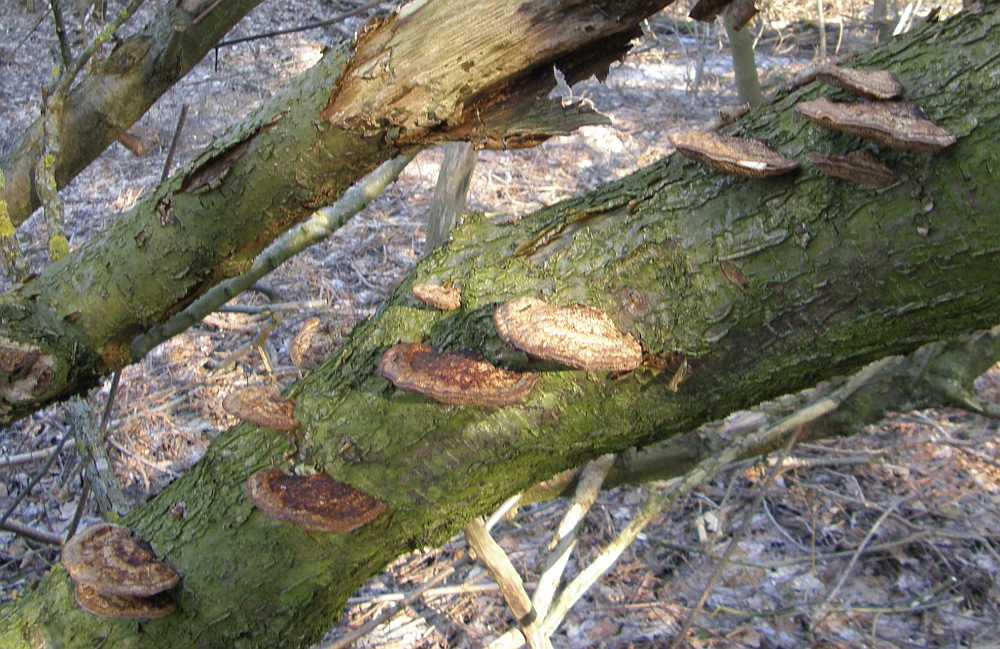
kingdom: Fungi
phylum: Basidiomycota
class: Agaricomycetes
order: Polyporales
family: Polyporaceae
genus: Daedaleopsis
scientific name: Daedaleopsis confragosa
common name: rødmende læderporesvamp
